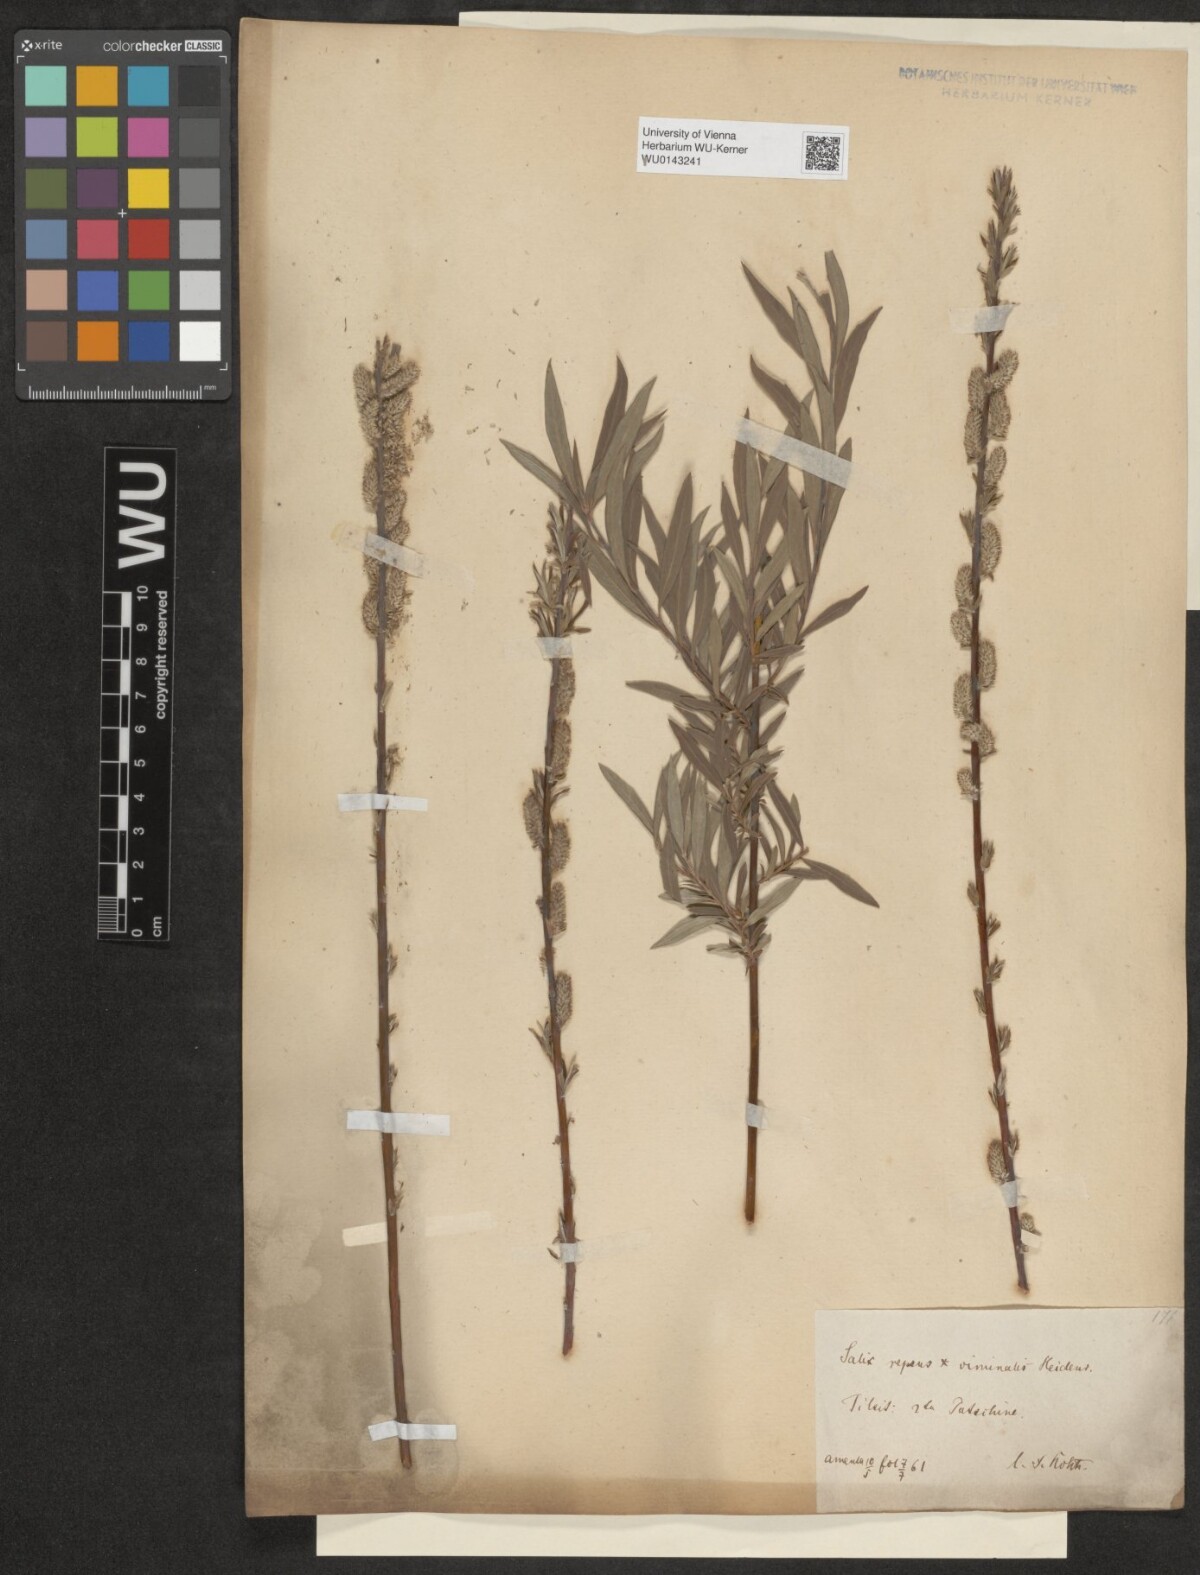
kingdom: Plantae
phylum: Tracheophyta
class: Magnoliopsida
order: Malpighiales
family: Salicaceae
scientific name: Salicaceae
